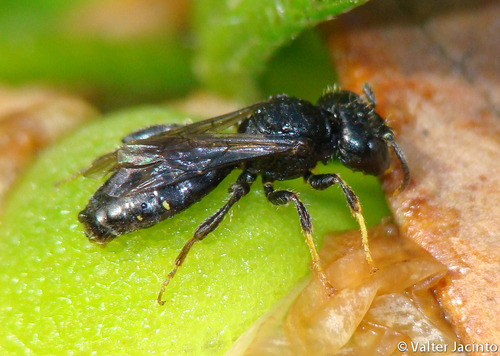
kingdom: Animalia
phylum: Arthropoda
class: Insecta
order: Hymenoptera
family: Andrenidae
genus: Flavipanurgus
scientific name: Flavipanurgus flavus
